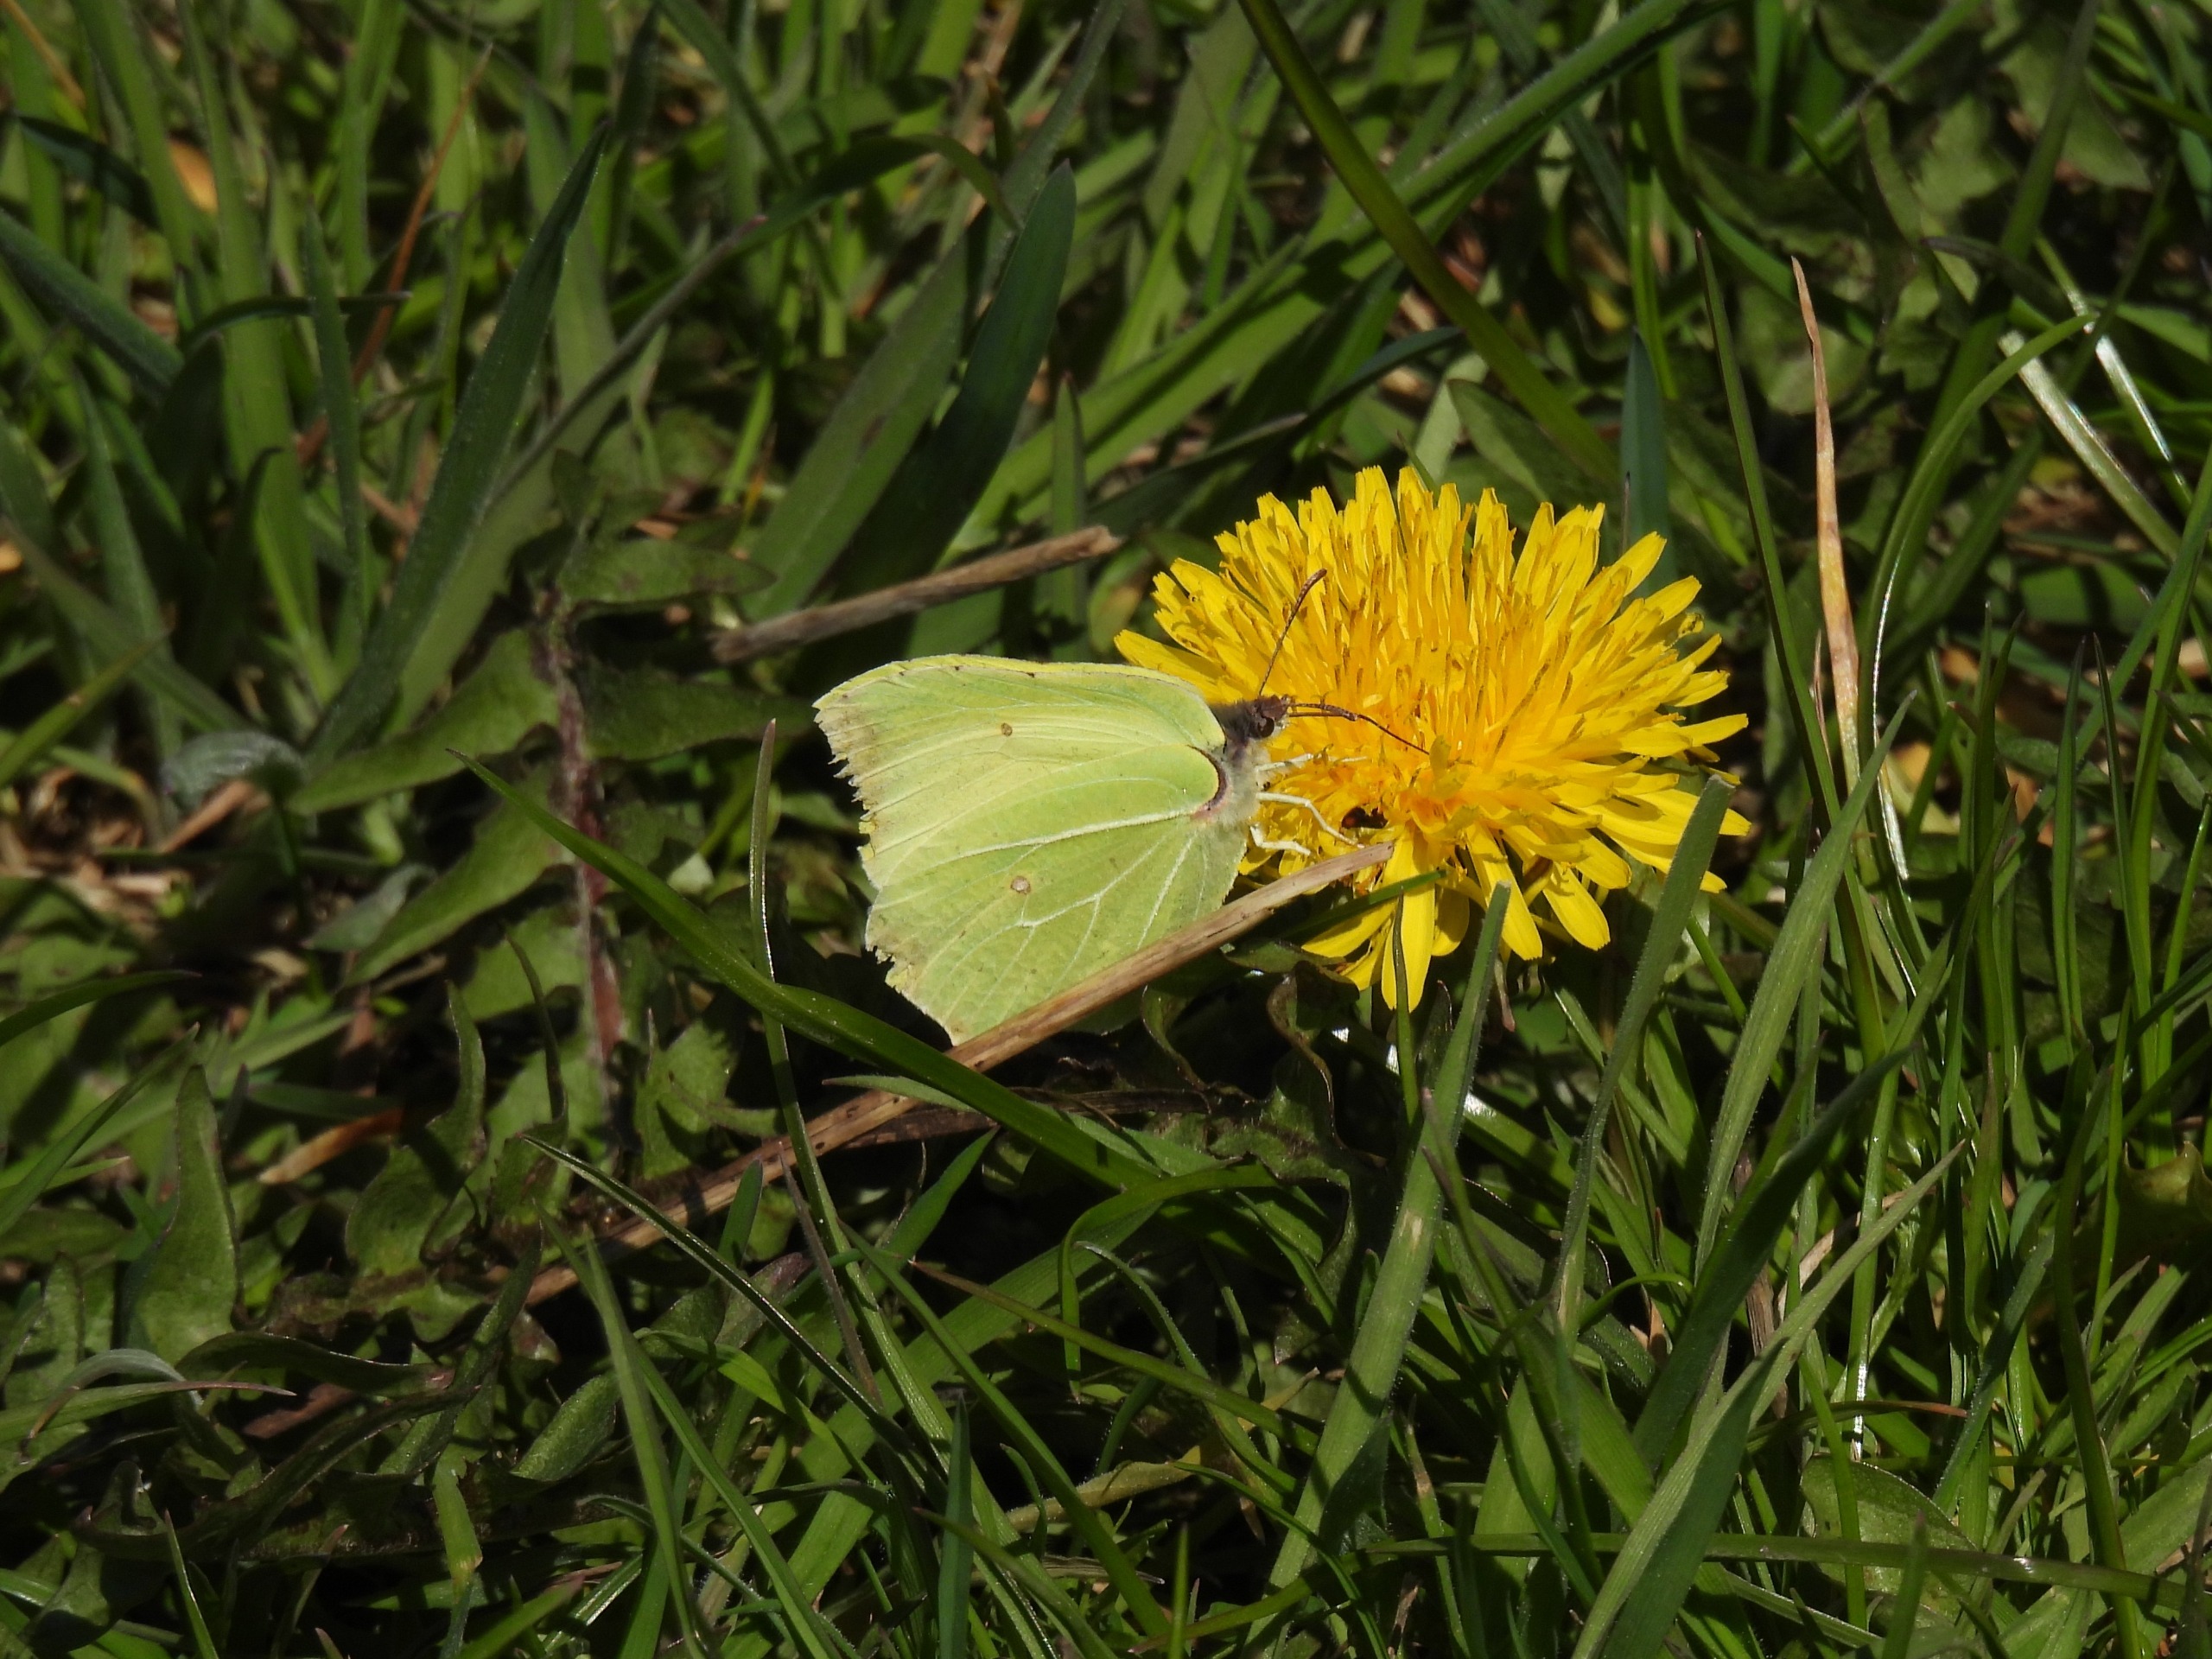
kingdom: Animalia
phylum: Arthropoda
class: Insecta
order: Lepidoptera
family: Pieridae
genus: Gonepteryx
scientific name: Gonepteryx rhamni
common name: Citronsommerfugl
